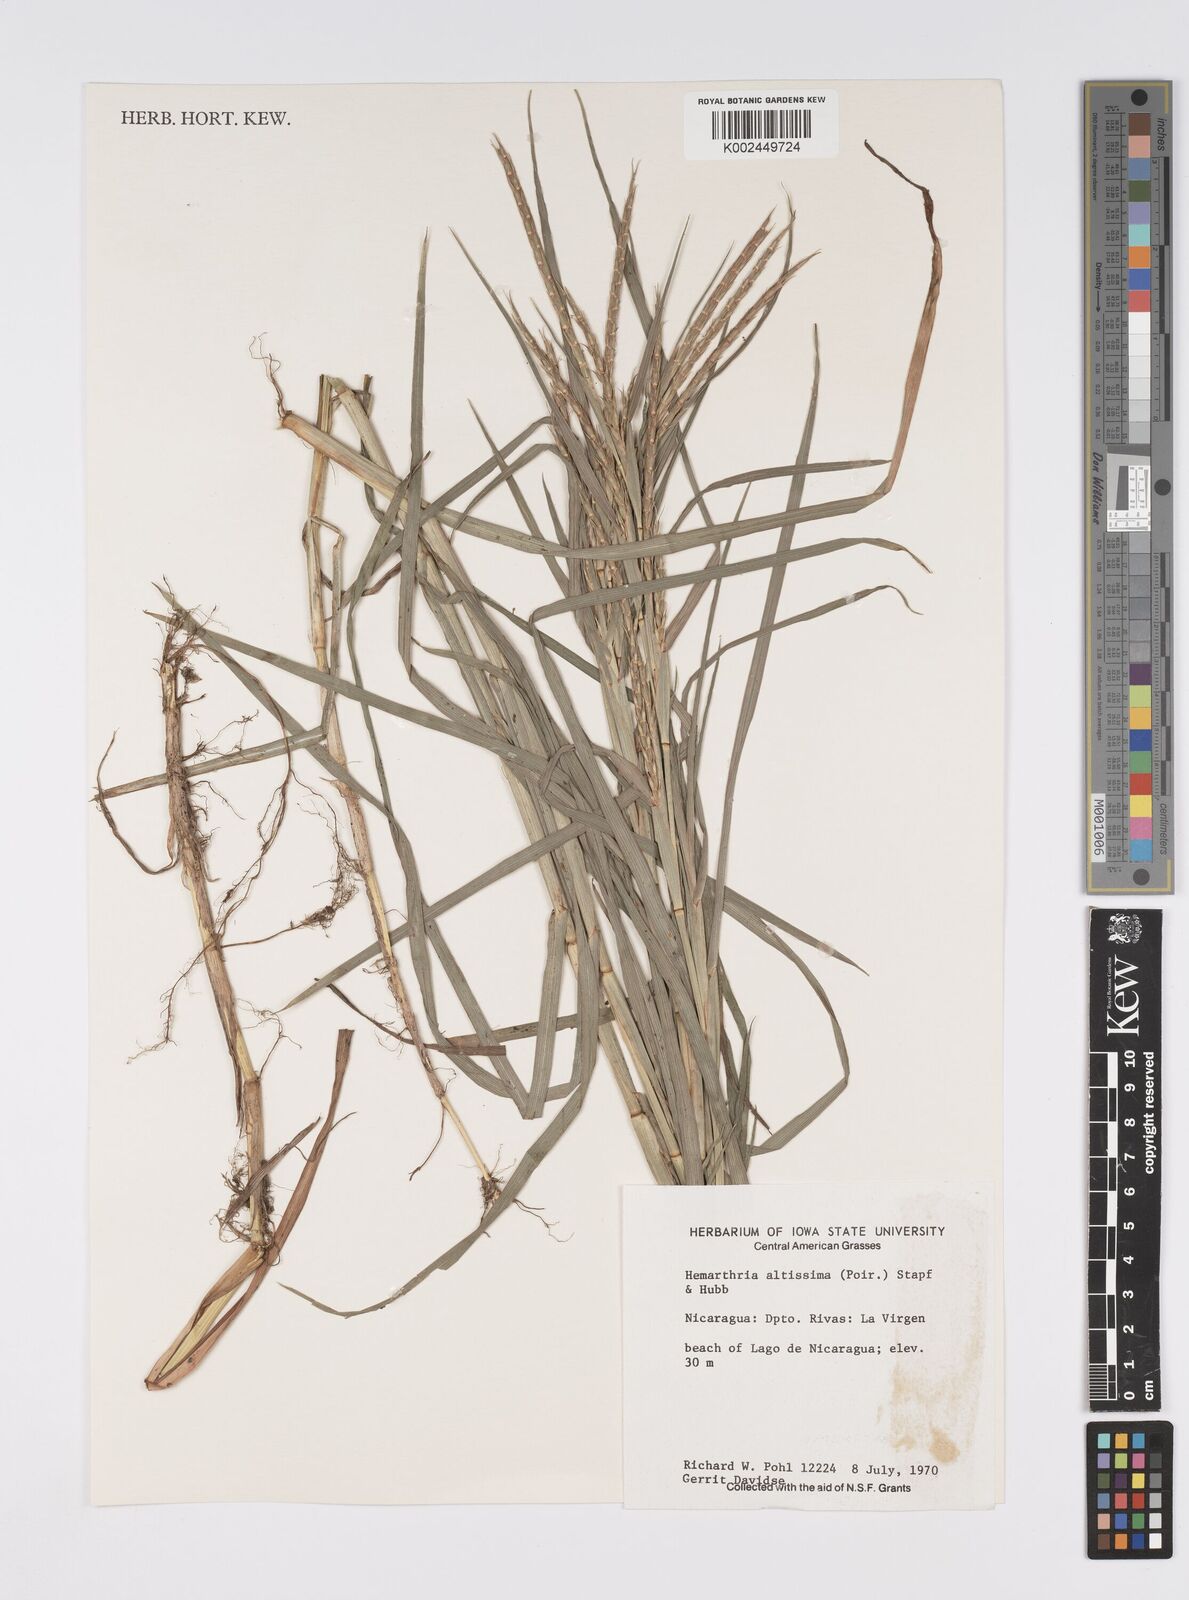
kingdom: Plantae
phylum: Tracheophyta
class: Liliopsida
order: Poales
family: Poaceae
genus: Hemarthria
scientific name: Hemarthria altissima
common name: African jointgrass
